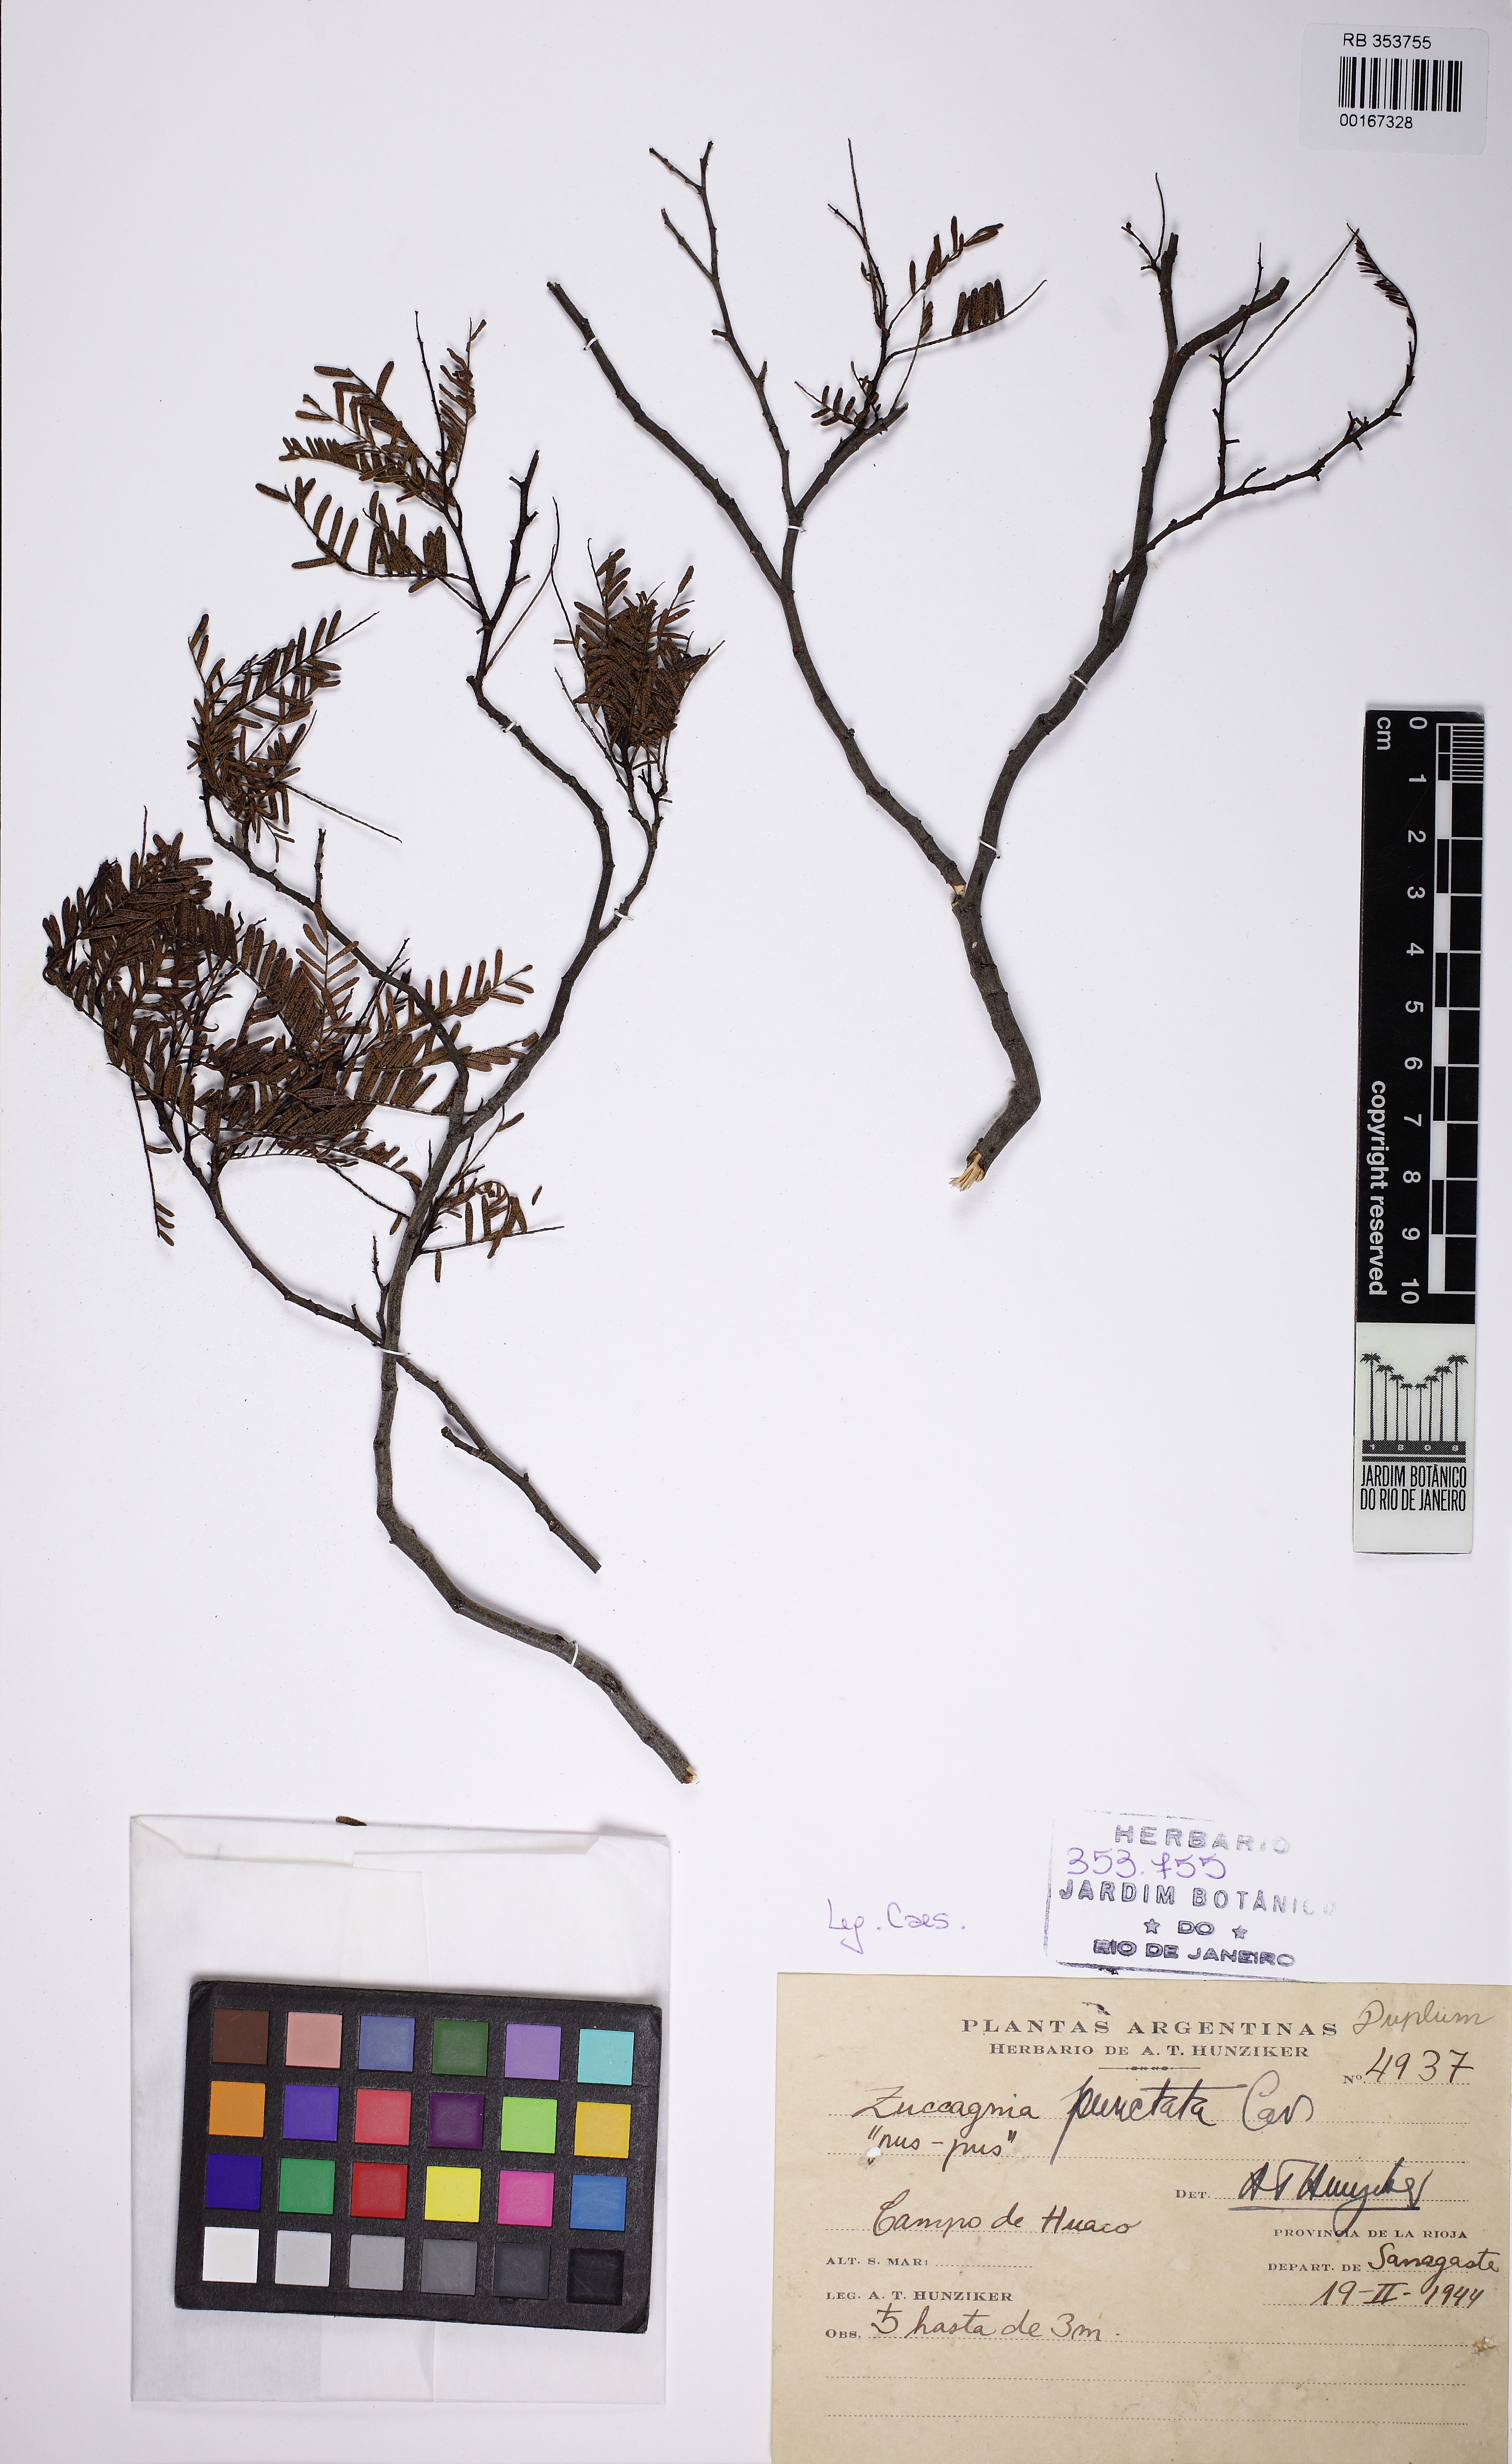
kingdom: Plantae
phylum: Tracheophyta
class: Magnoliopsida
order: Fabales
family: Fabaceae
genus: Zuccagnia
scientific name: Zuccagnia
